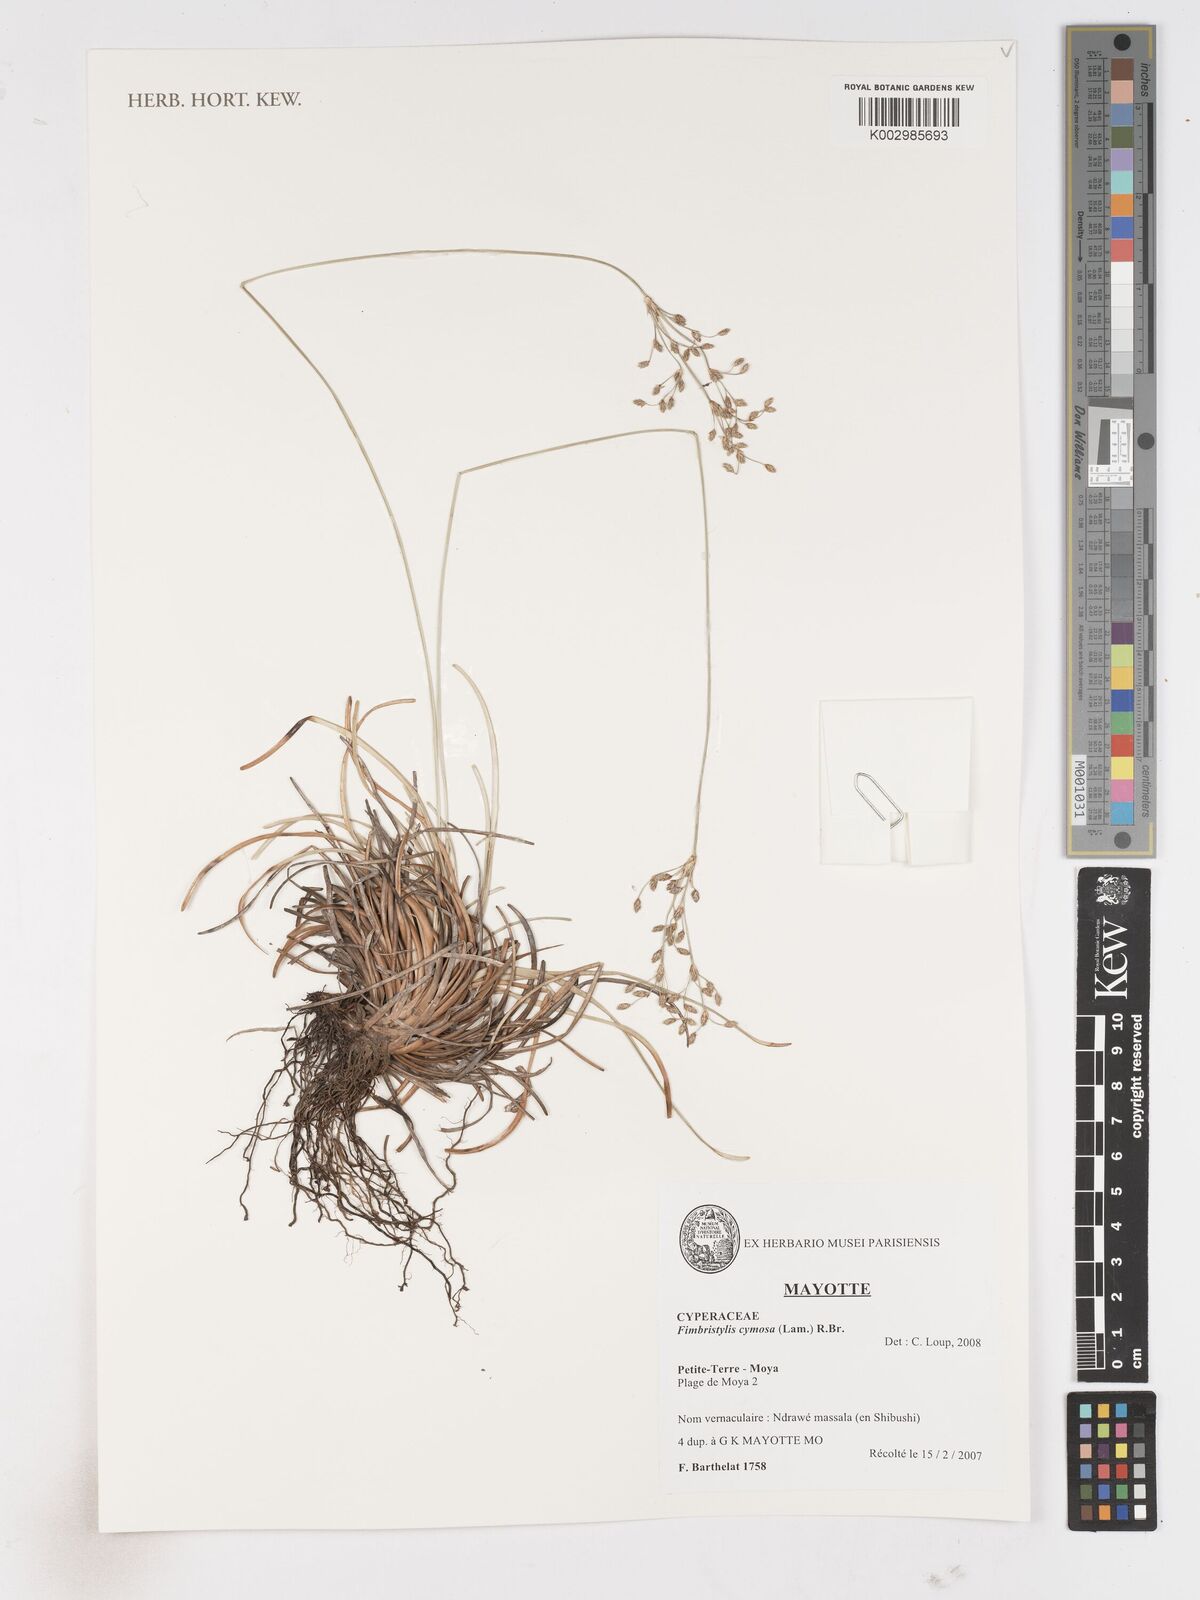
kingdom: Plantae
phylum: Tracheophyta
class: Liliopsida
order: Poales
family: Cyperaceae
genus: Fimbristylis
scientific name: Fimbristylis cymosa
